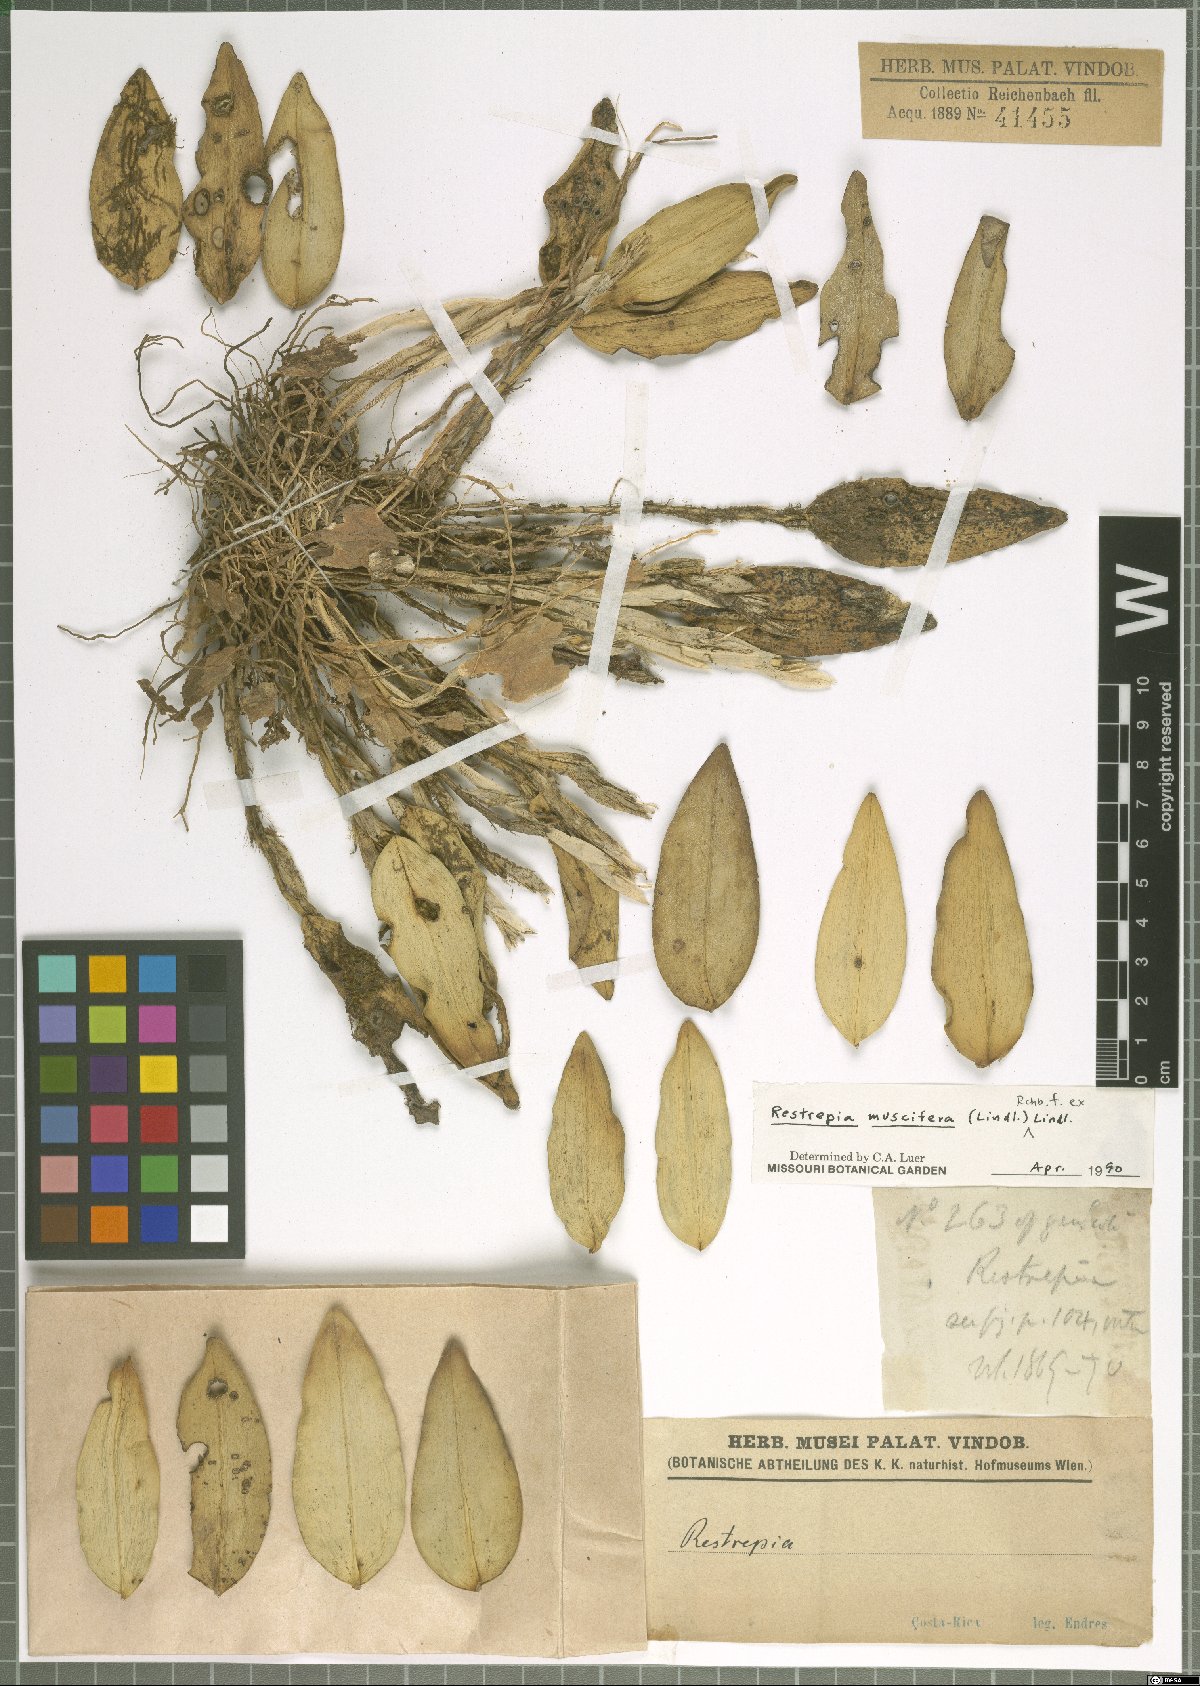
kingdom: Plantae
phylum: Tracheophyta
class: Liliopsida
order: Asparagales
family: Orchidaceae
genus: Restrepia
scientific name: Restrepia muscifera
